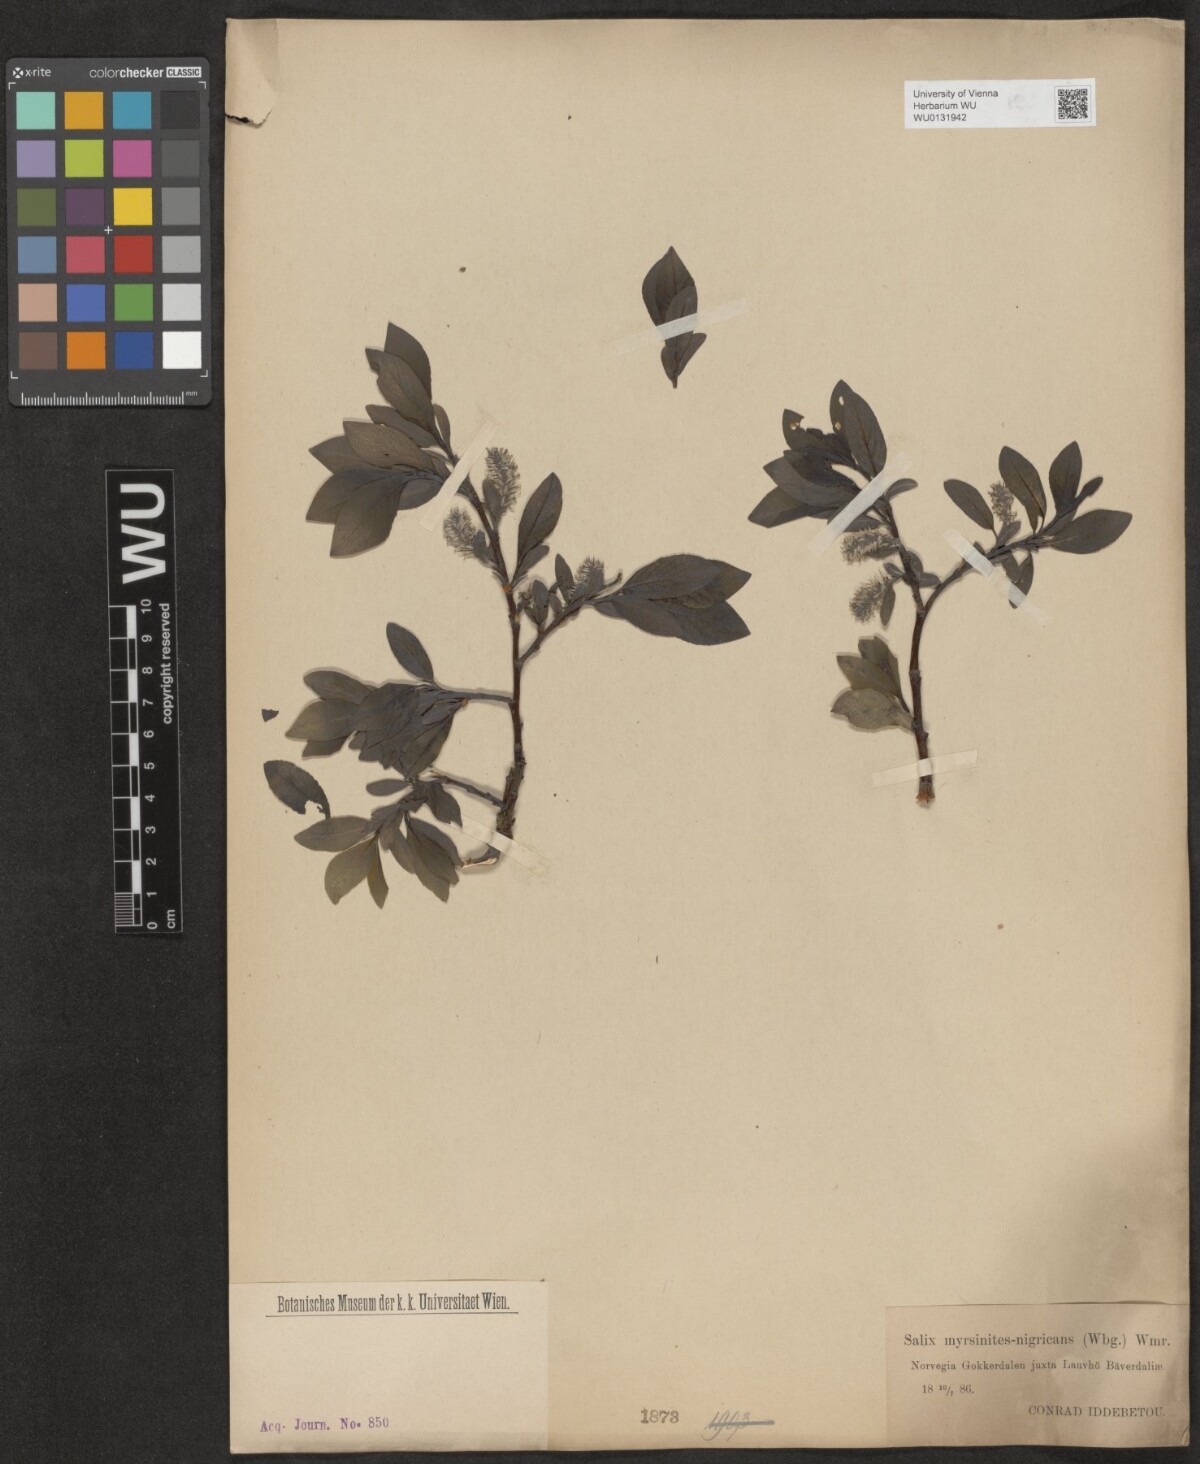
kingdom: Plantae
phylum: Tracheophyta
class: Magnoliopsida
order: Malpighiales
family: Salicaceae
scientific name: Salicaceae
